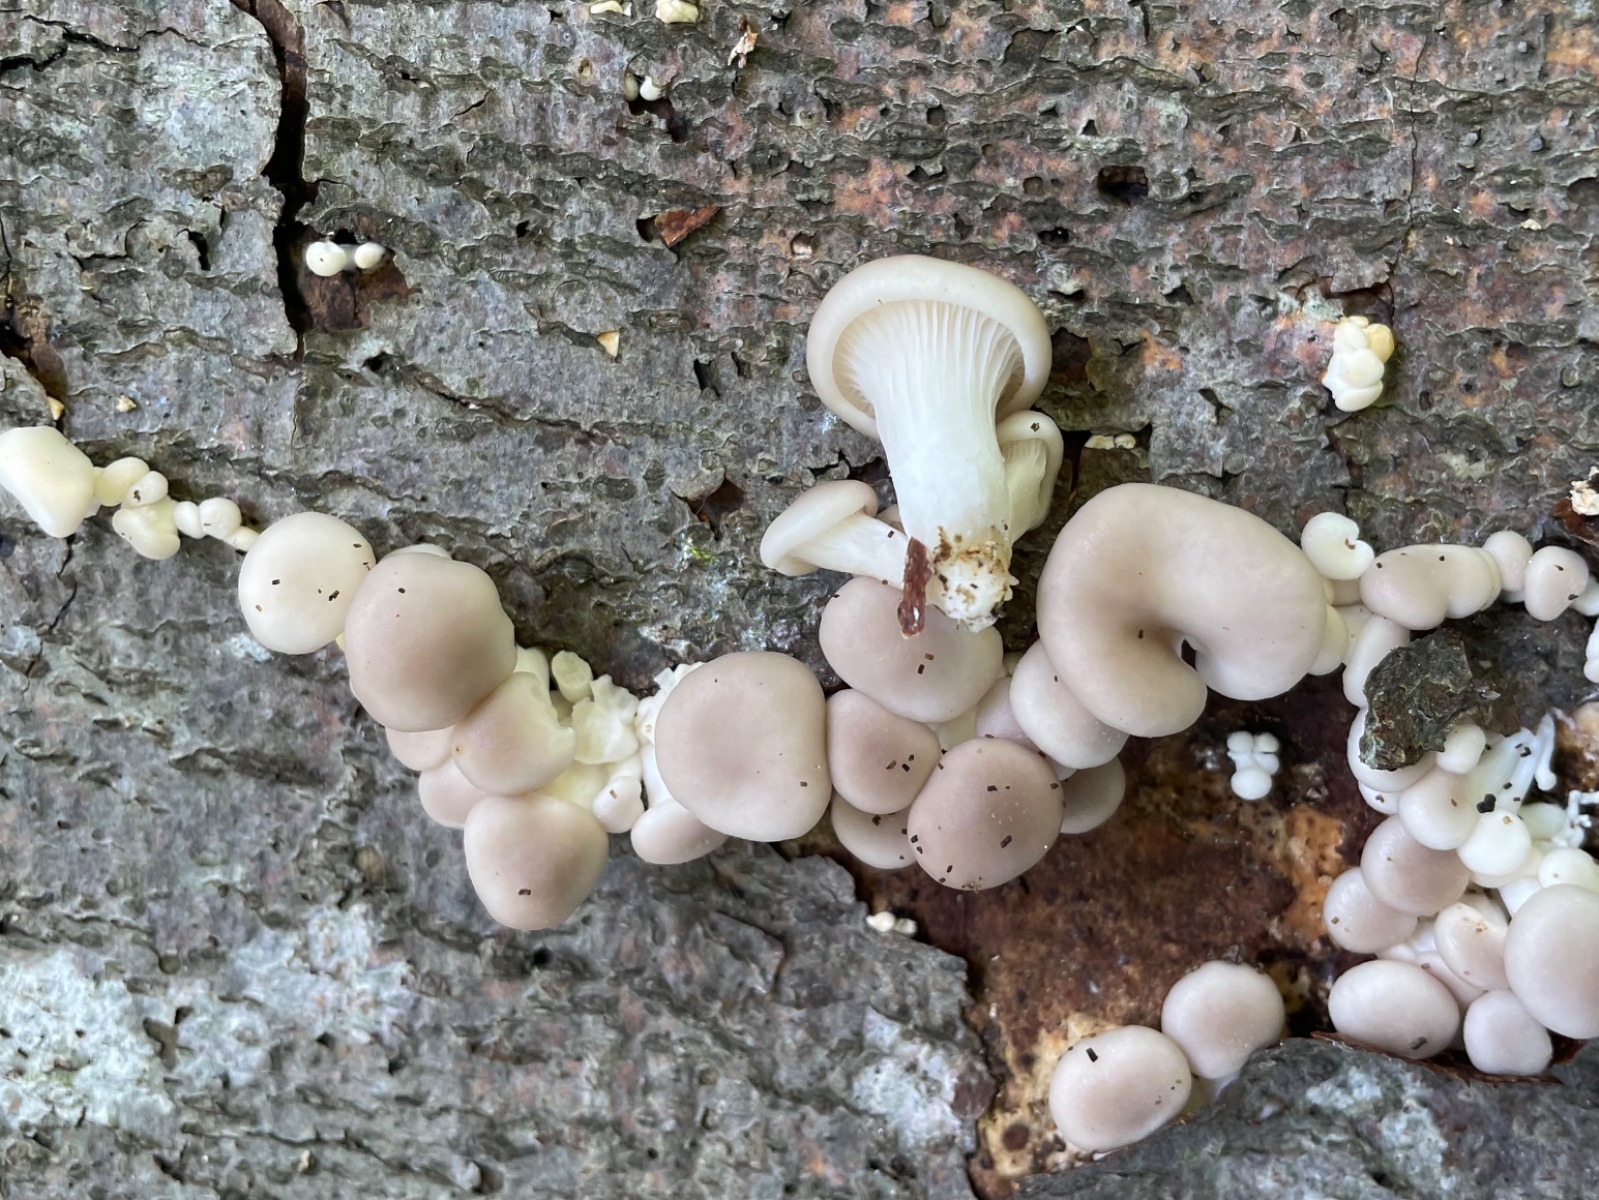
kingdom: Fungi
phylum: Basidiomycota
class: Agaricomycetes
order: Agaricales
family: Pleurotaceae
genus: Pleurotus
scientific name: Pleurotus ostreatus
